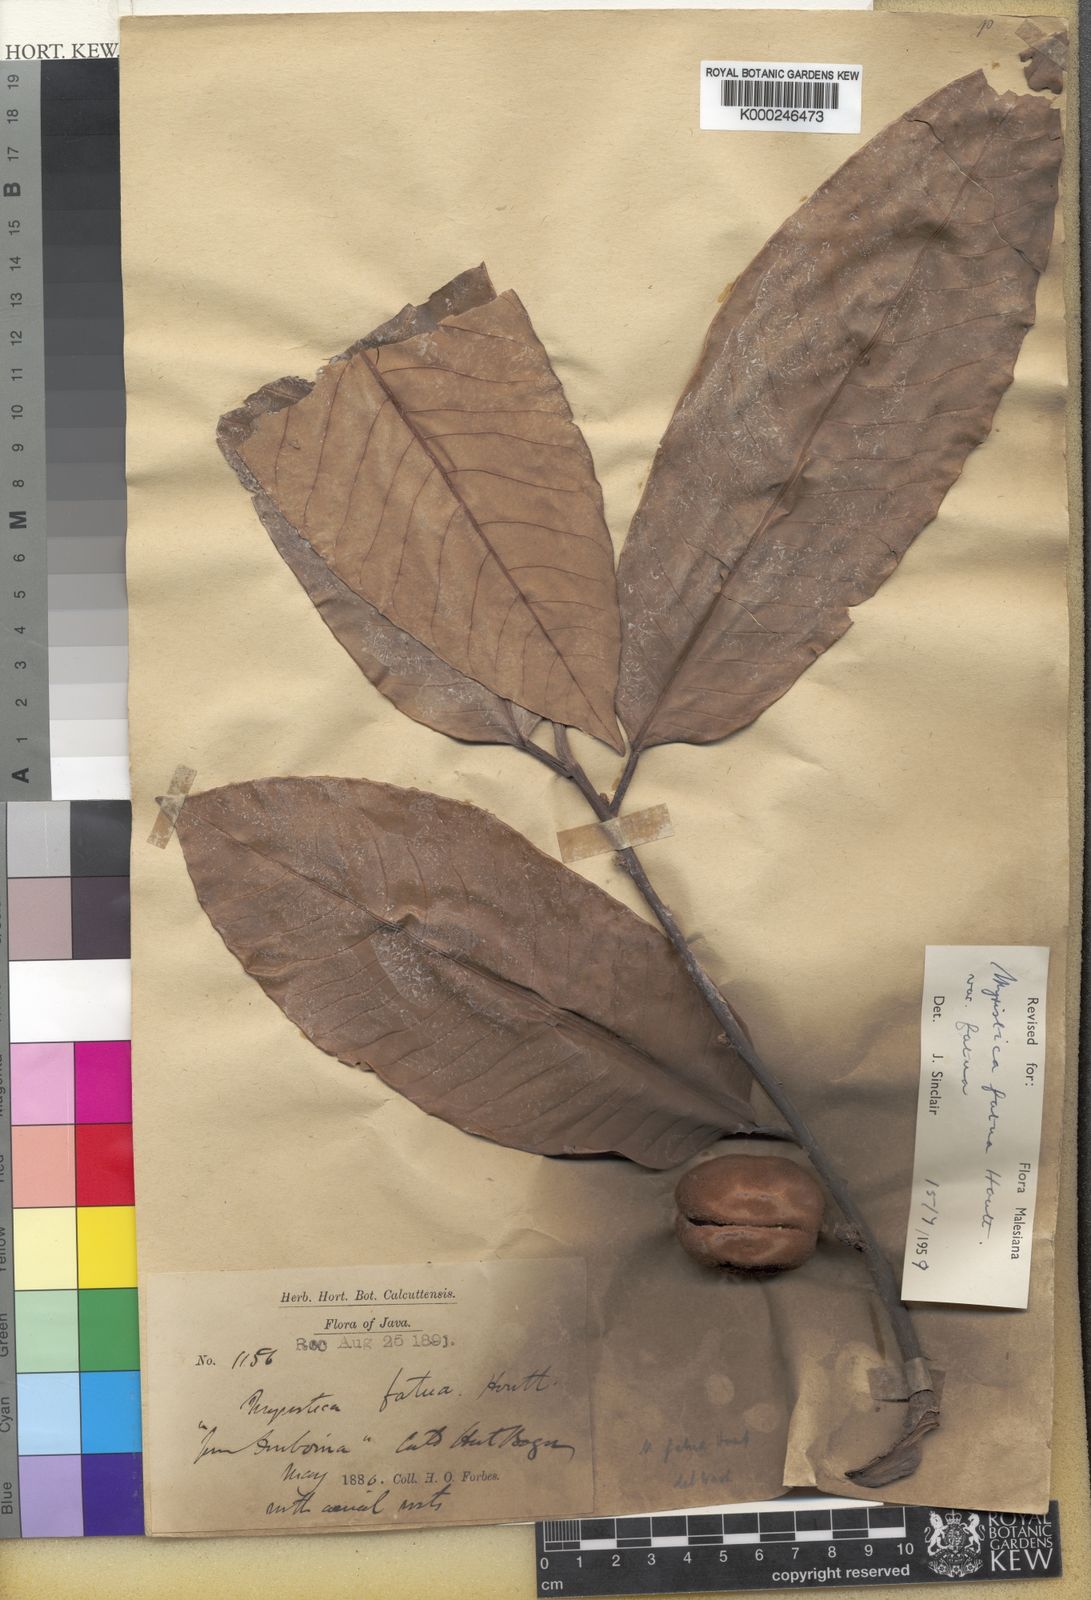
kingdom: Plantae
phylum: Tracheophyta
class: Magnoliopsida
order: Magnoliales
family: Myristicaceae
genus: Myristica
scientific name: Myristica fatua
